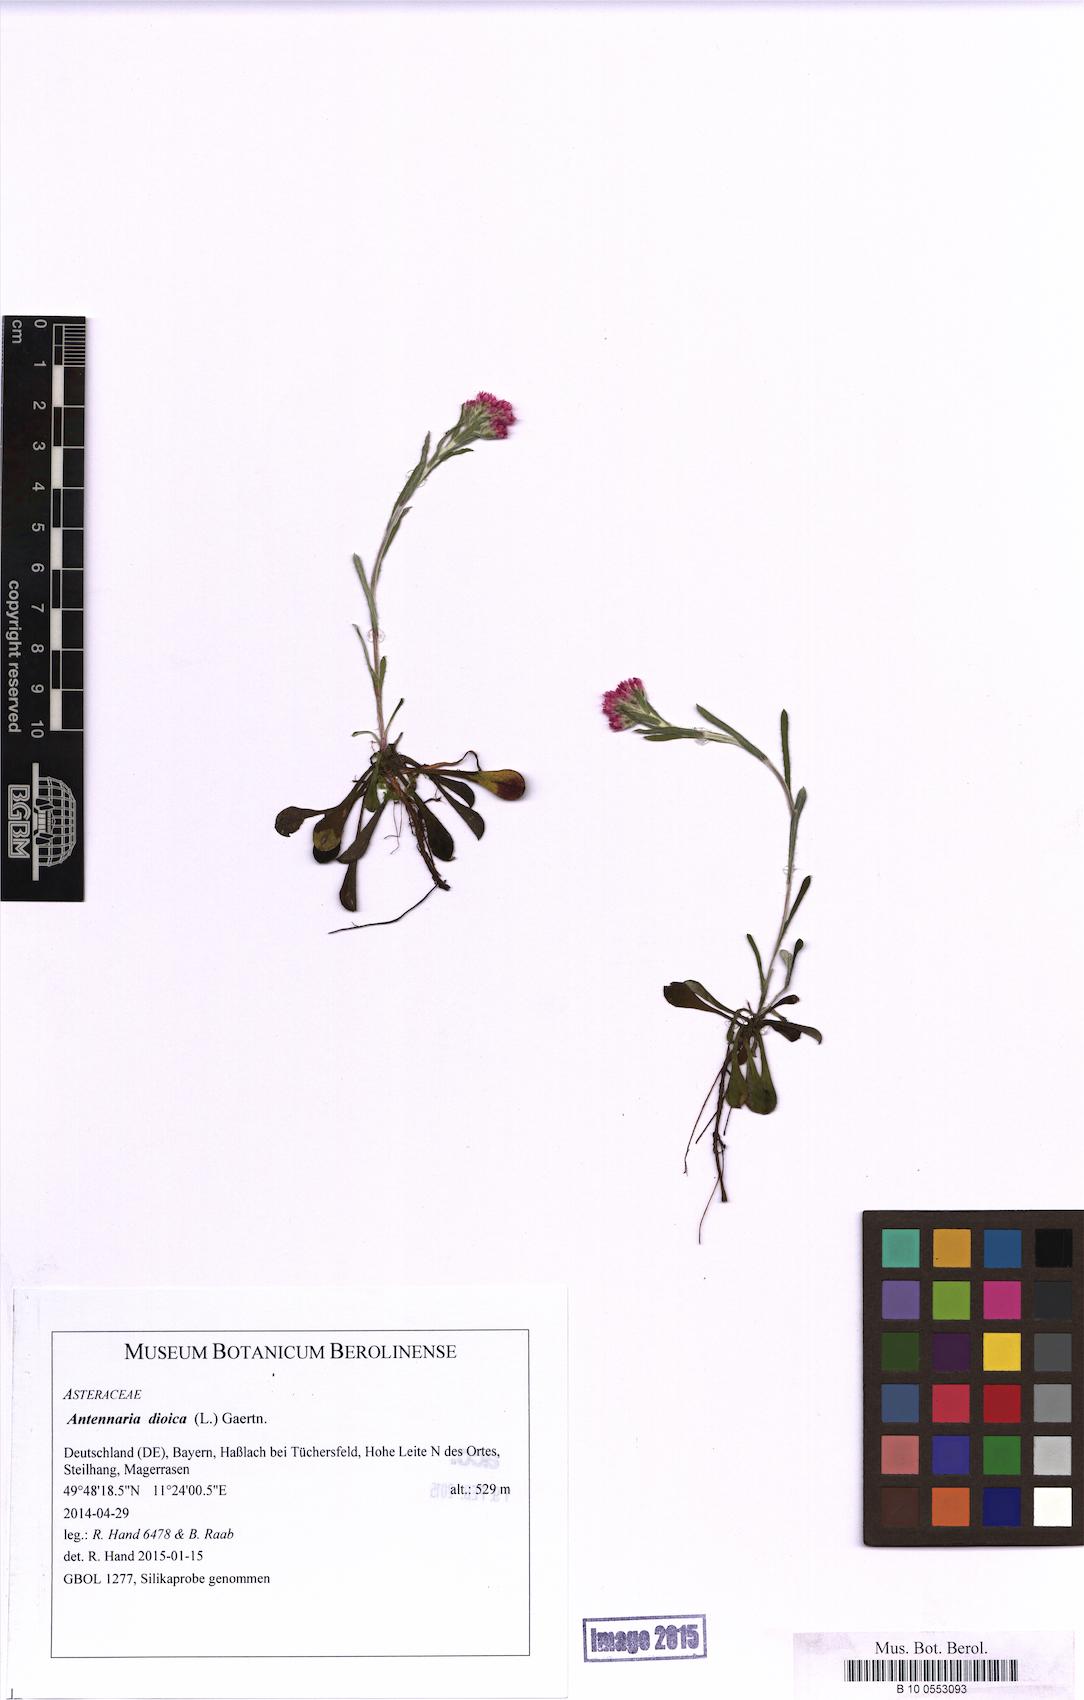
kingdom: Plantae
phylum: Tracheophyta
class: Magnoliopsida
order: Asterales
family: Asteraceae
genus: Antennaria
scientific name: Antennaria dioica
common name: Mountain everlasting
